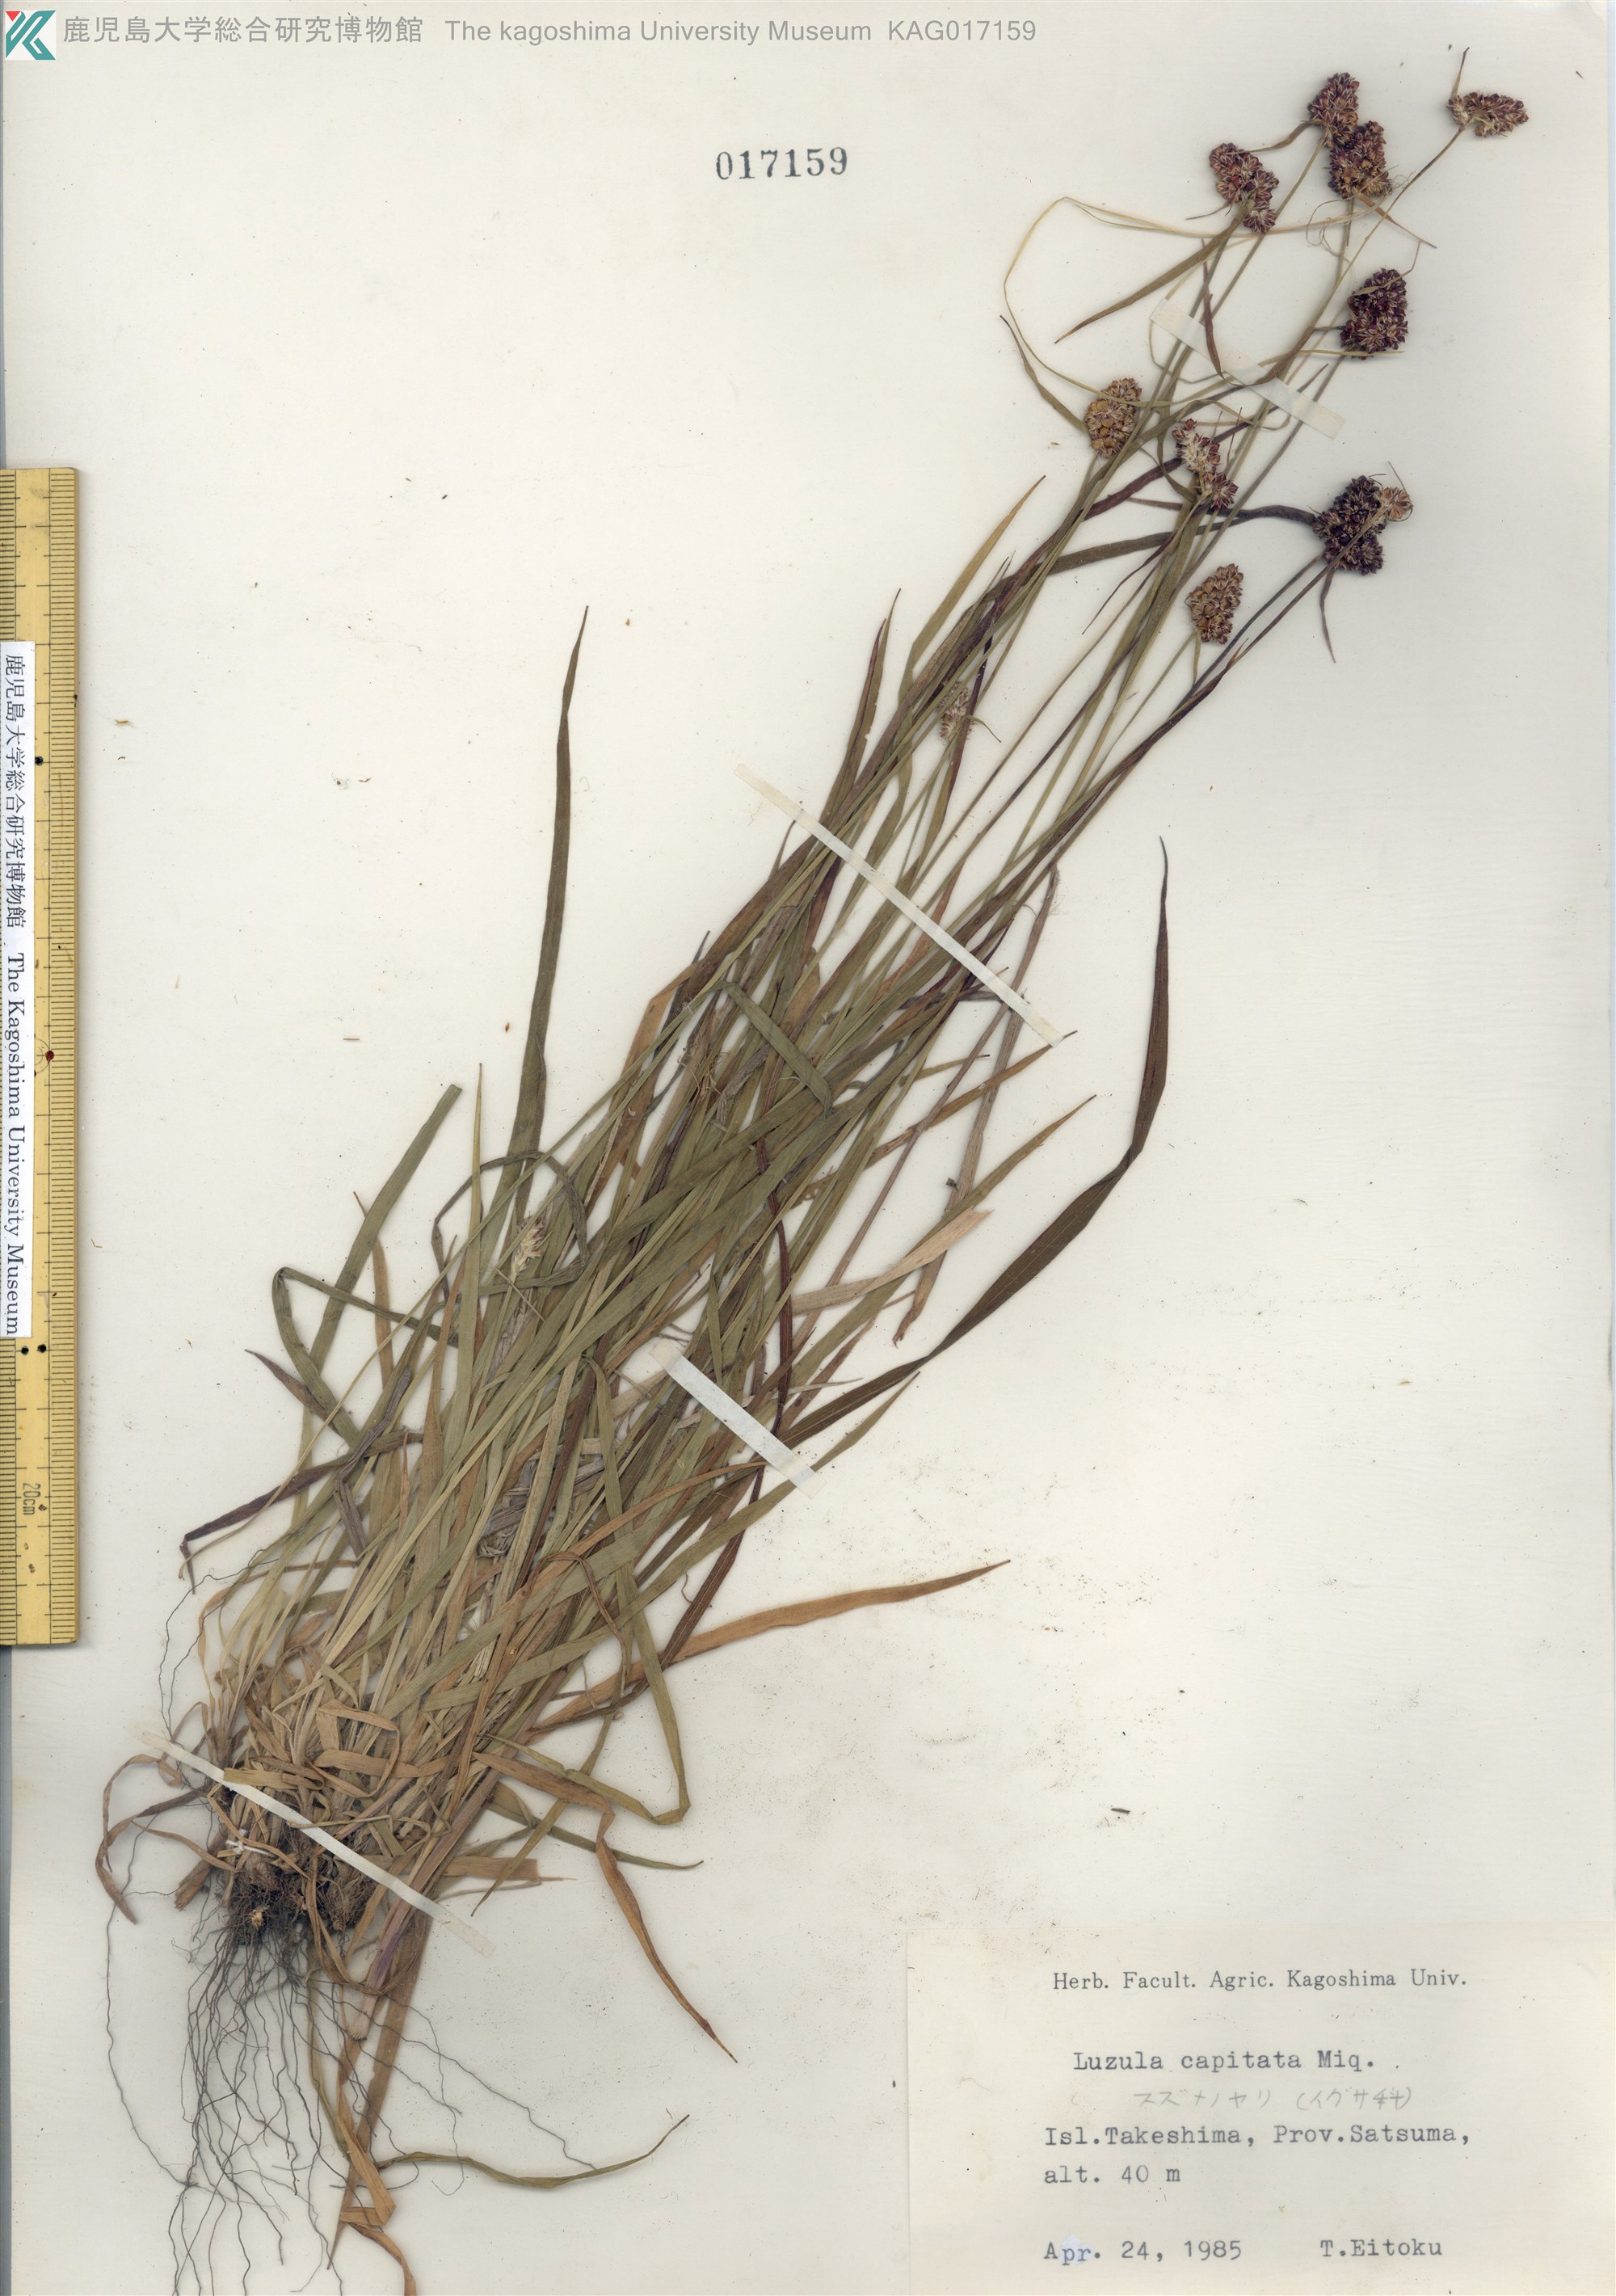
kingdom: Plantae
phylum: Tracheophyta
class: Liliopsida
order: Poales
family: Juncaceae
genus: Luzula
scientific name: Luzula capitata
